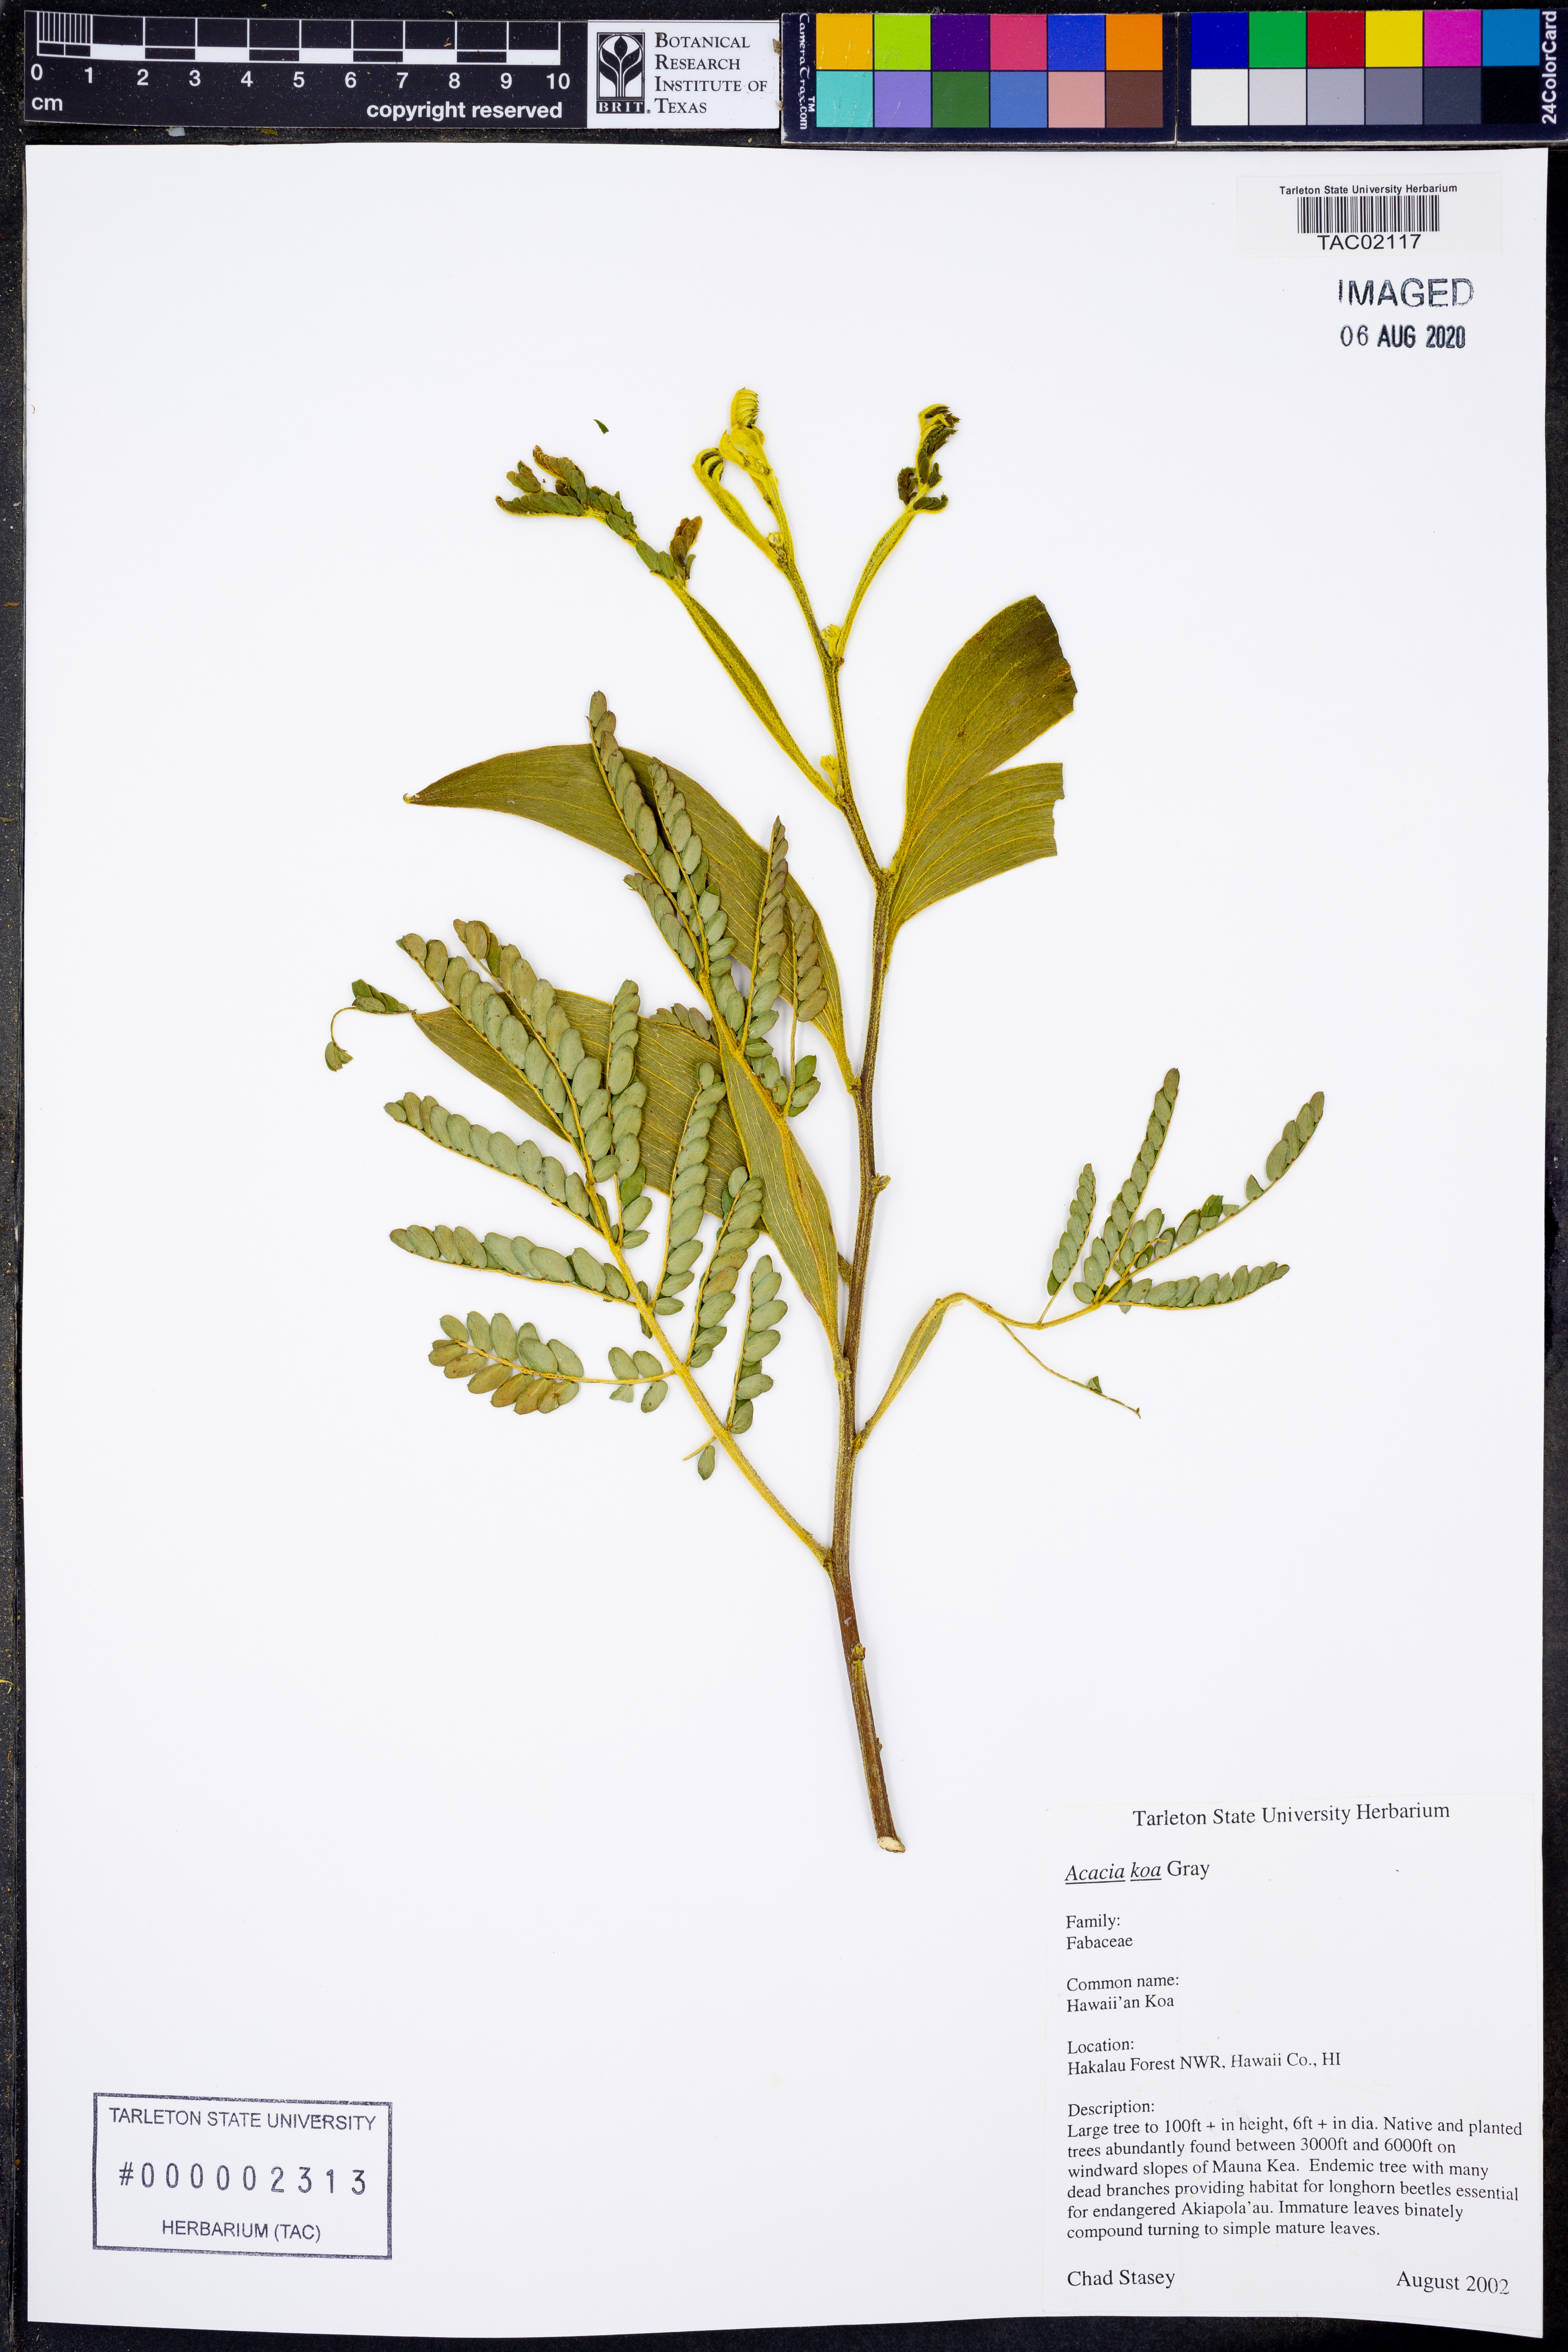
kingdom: Plantae
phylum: Tracheophyta
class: Magnoliopsida
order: Fabales
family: Fabaceae
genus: Acacia
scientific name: Acacia koa
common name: Gray koa
